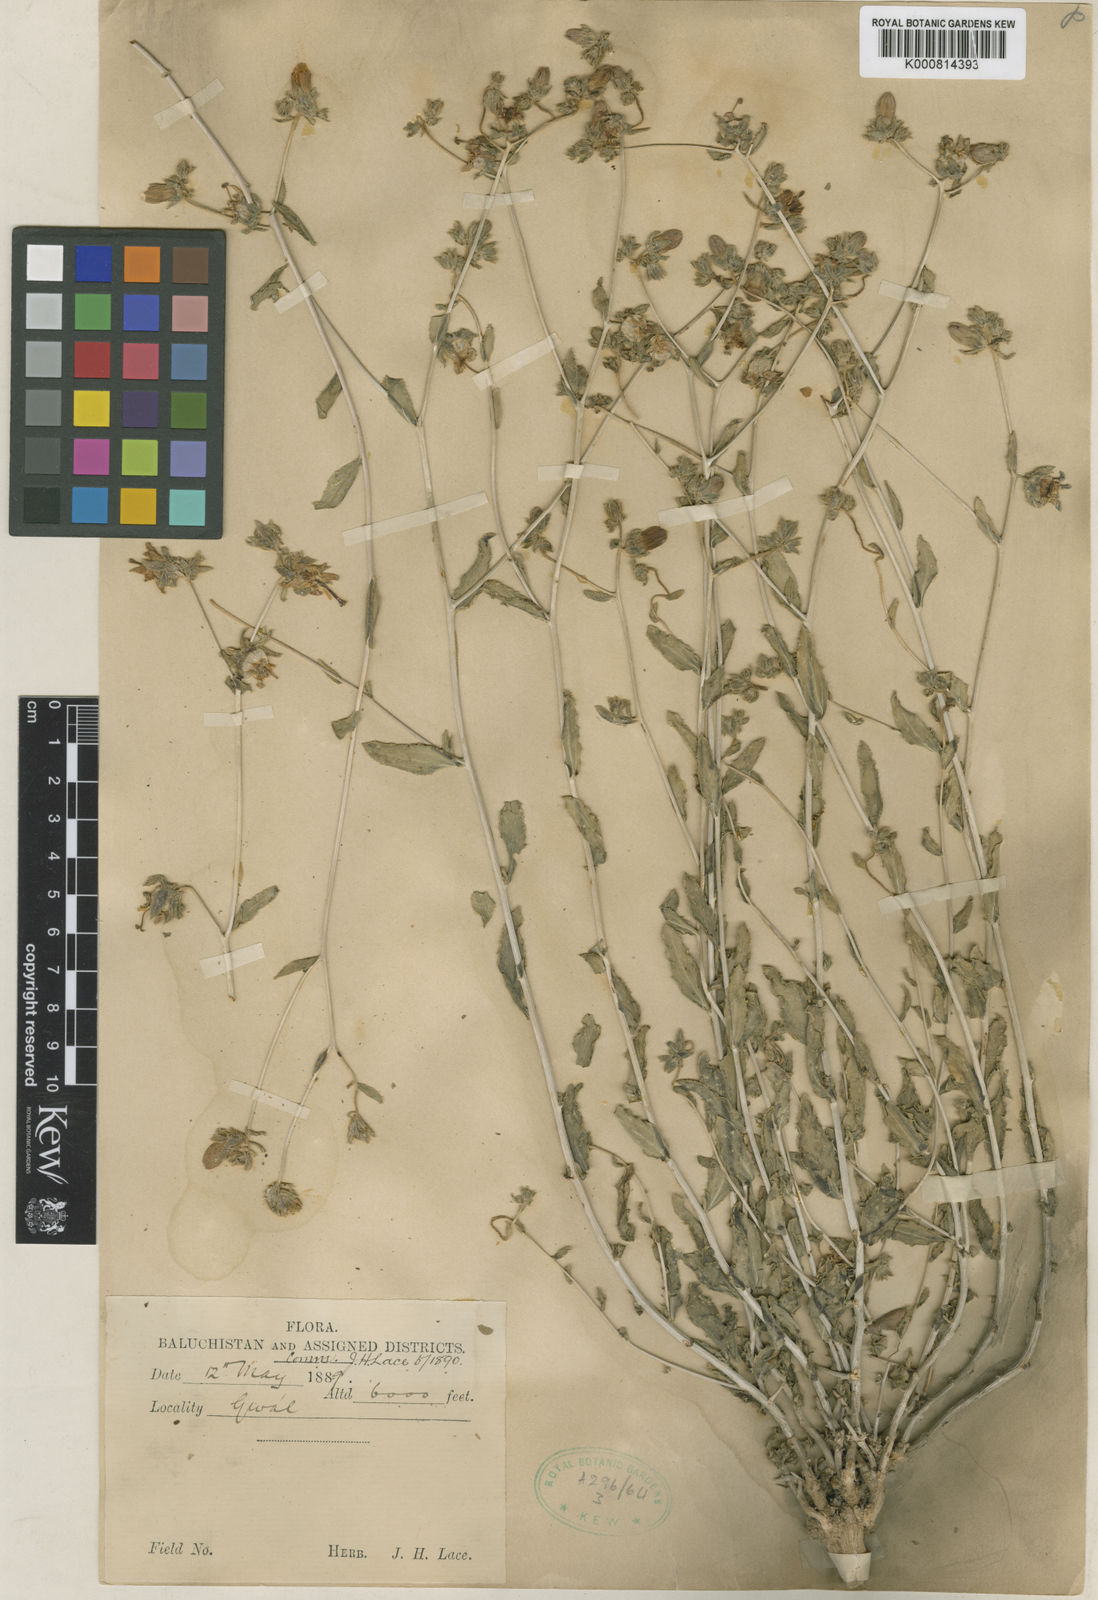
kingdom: Plantae
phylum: Tracheophyta
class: Magnoliopsida
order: Asterales
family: Campanulaceae
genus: Campanula
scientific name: Campanula leucoclada
